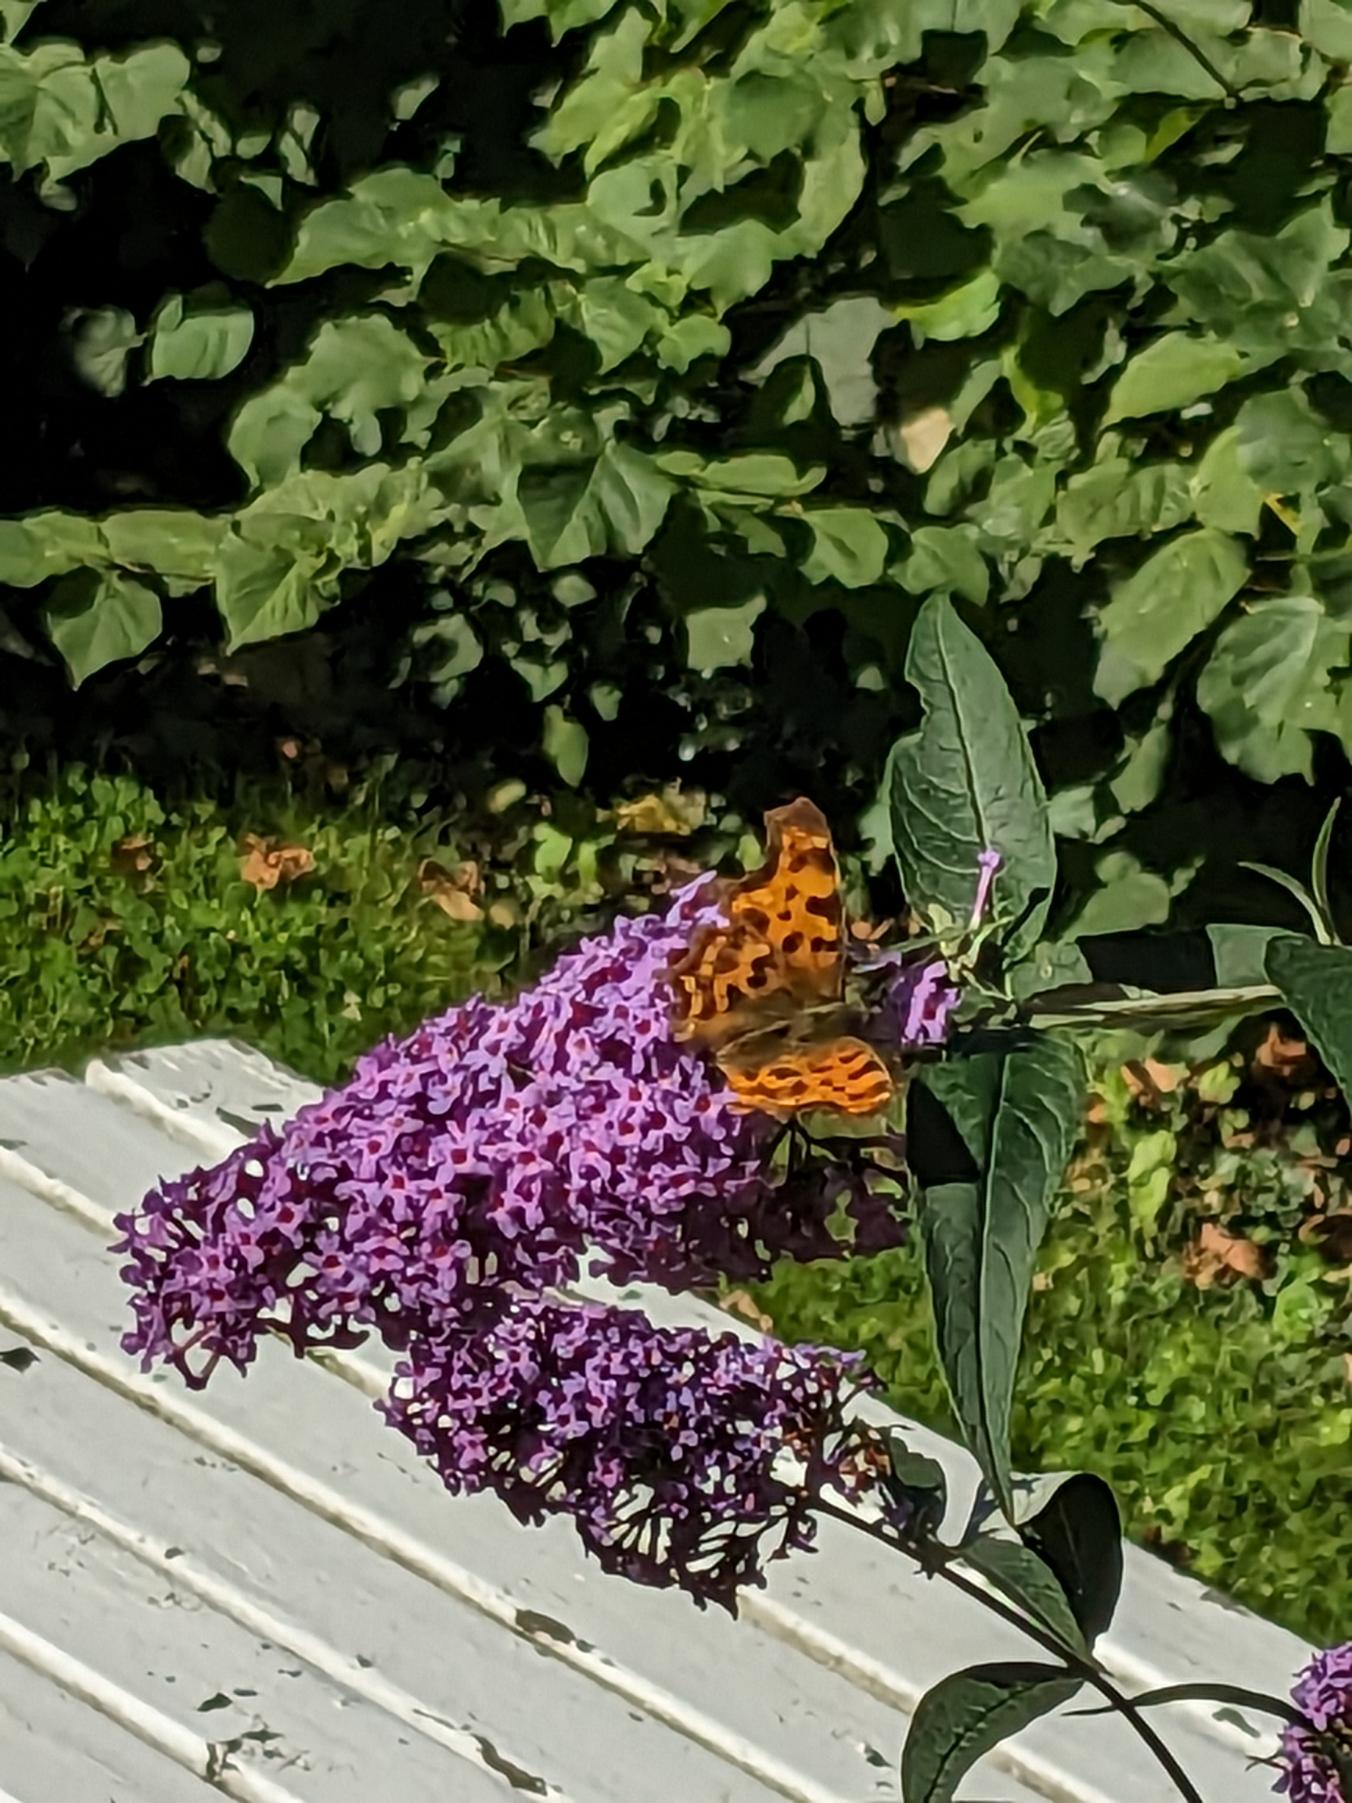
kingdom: Animalia
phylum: Arthropoda
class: Insecta
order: Lepidoptera
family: Nymphalidae
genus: Polygonia
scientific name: Polygonia c-album
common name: Det hvide C
